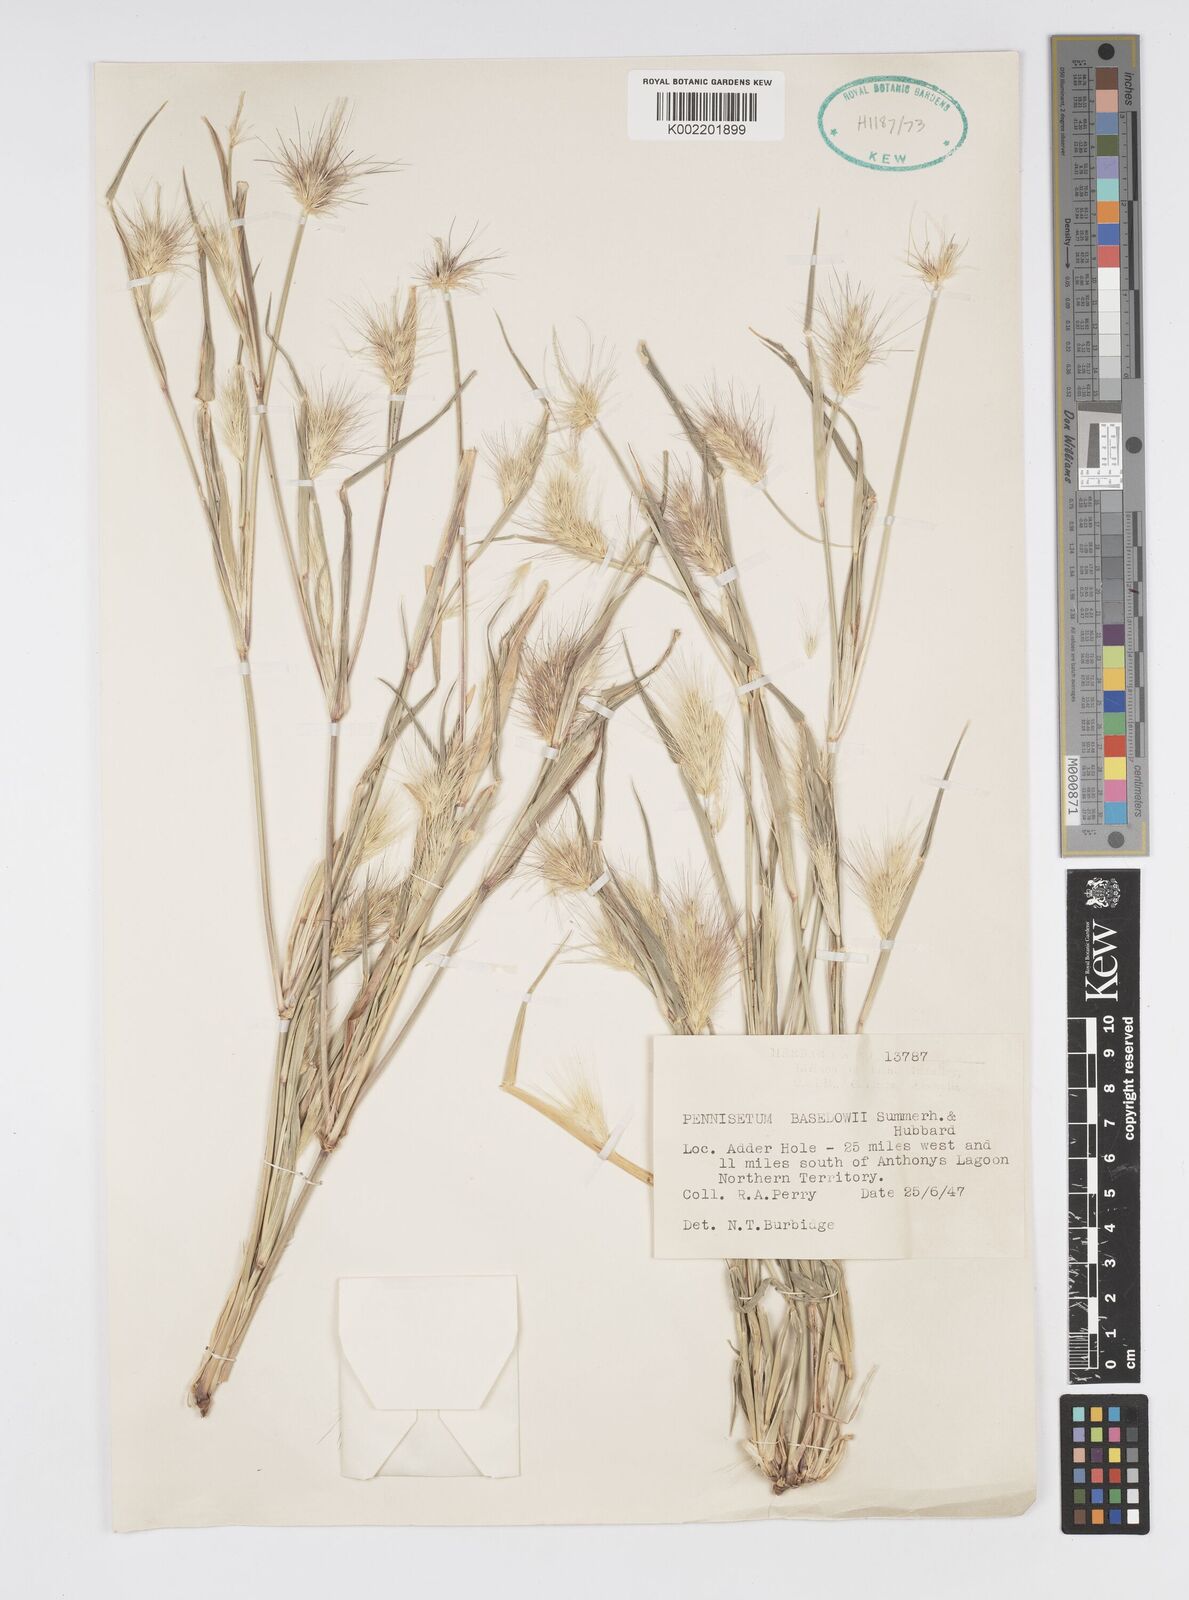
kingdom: Plantae
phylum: Tracheophyta
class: Liliopsida
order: Poales
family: Poaceae
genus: Cenchrus
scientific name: Cenchrus basedowii
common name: Asbestos grass
